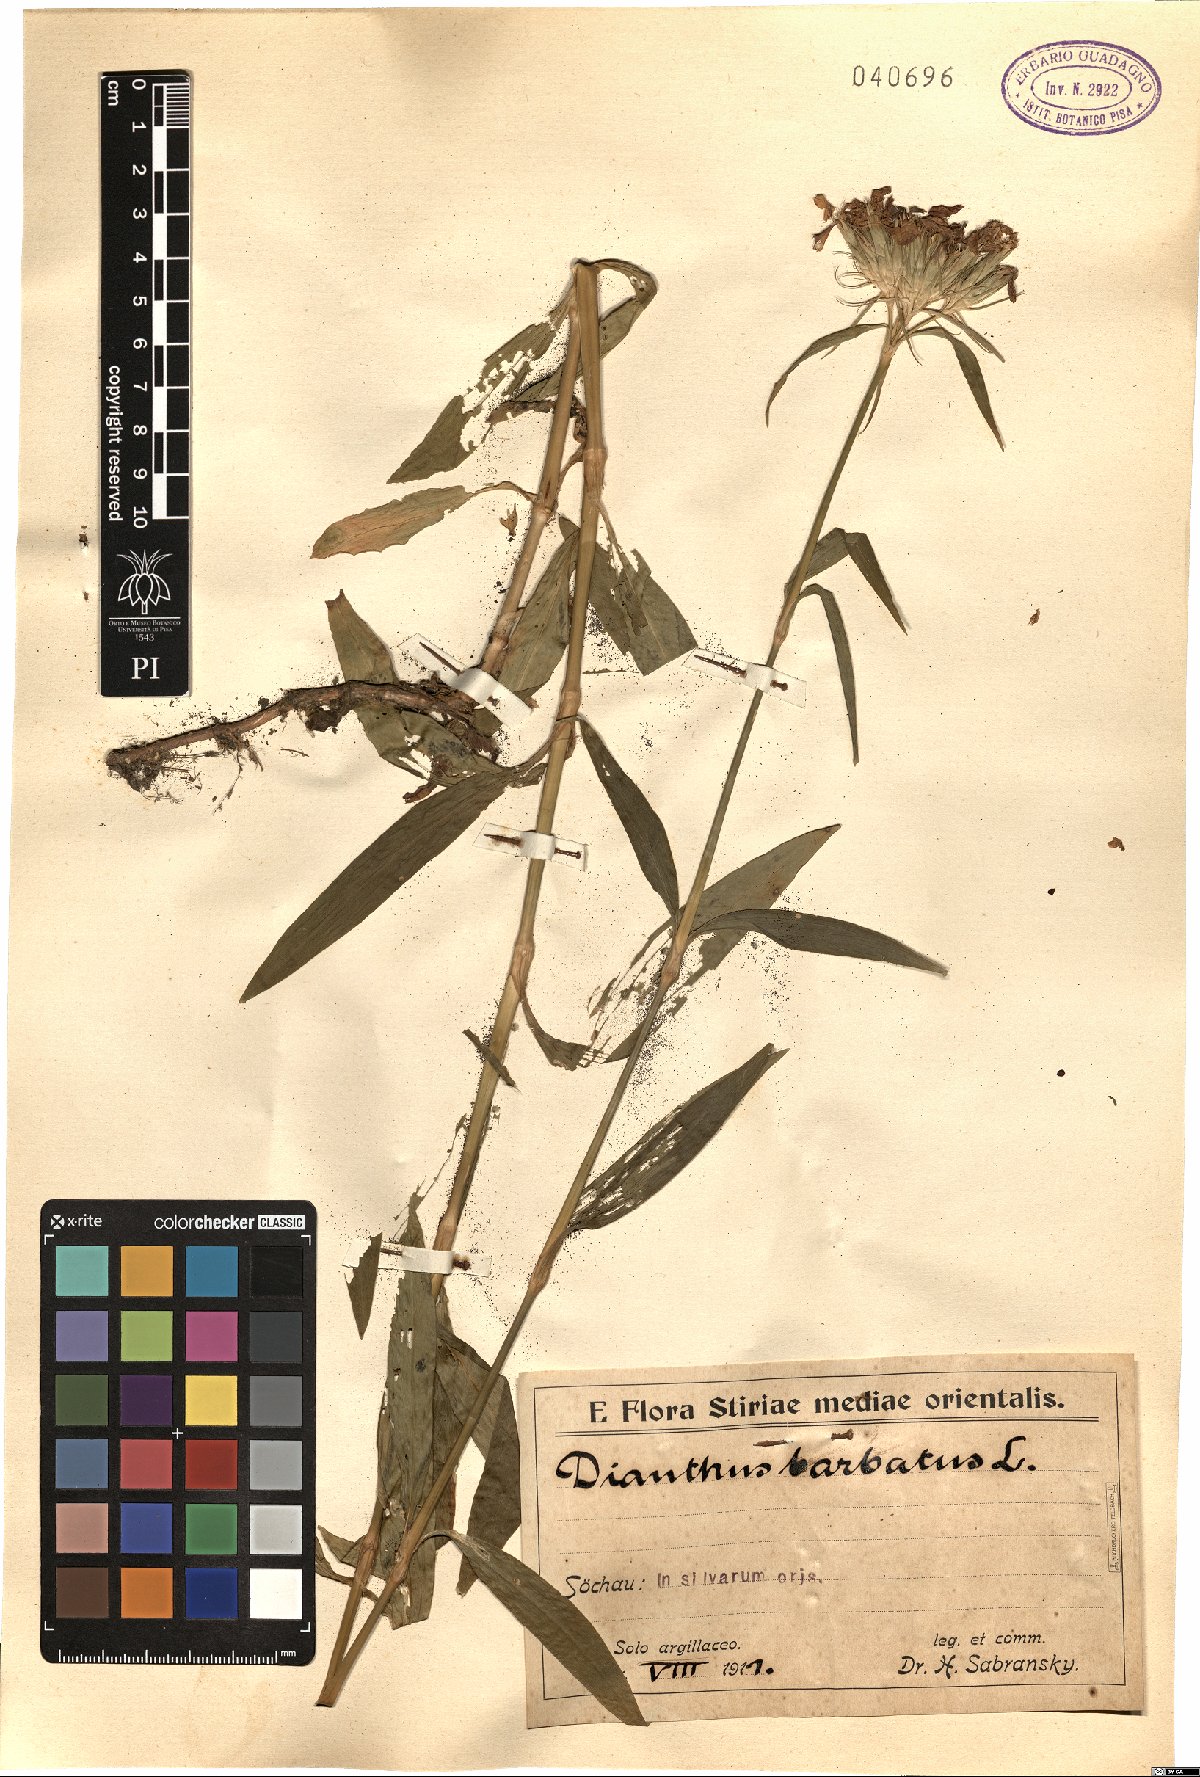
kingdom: Plantae
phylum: Tracheophyta
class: Magnoliopsida
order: Caryophyllales
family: Caryophyllaceae
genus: Dianthus
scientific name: Dianthus barbatus
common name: Sweet-william
